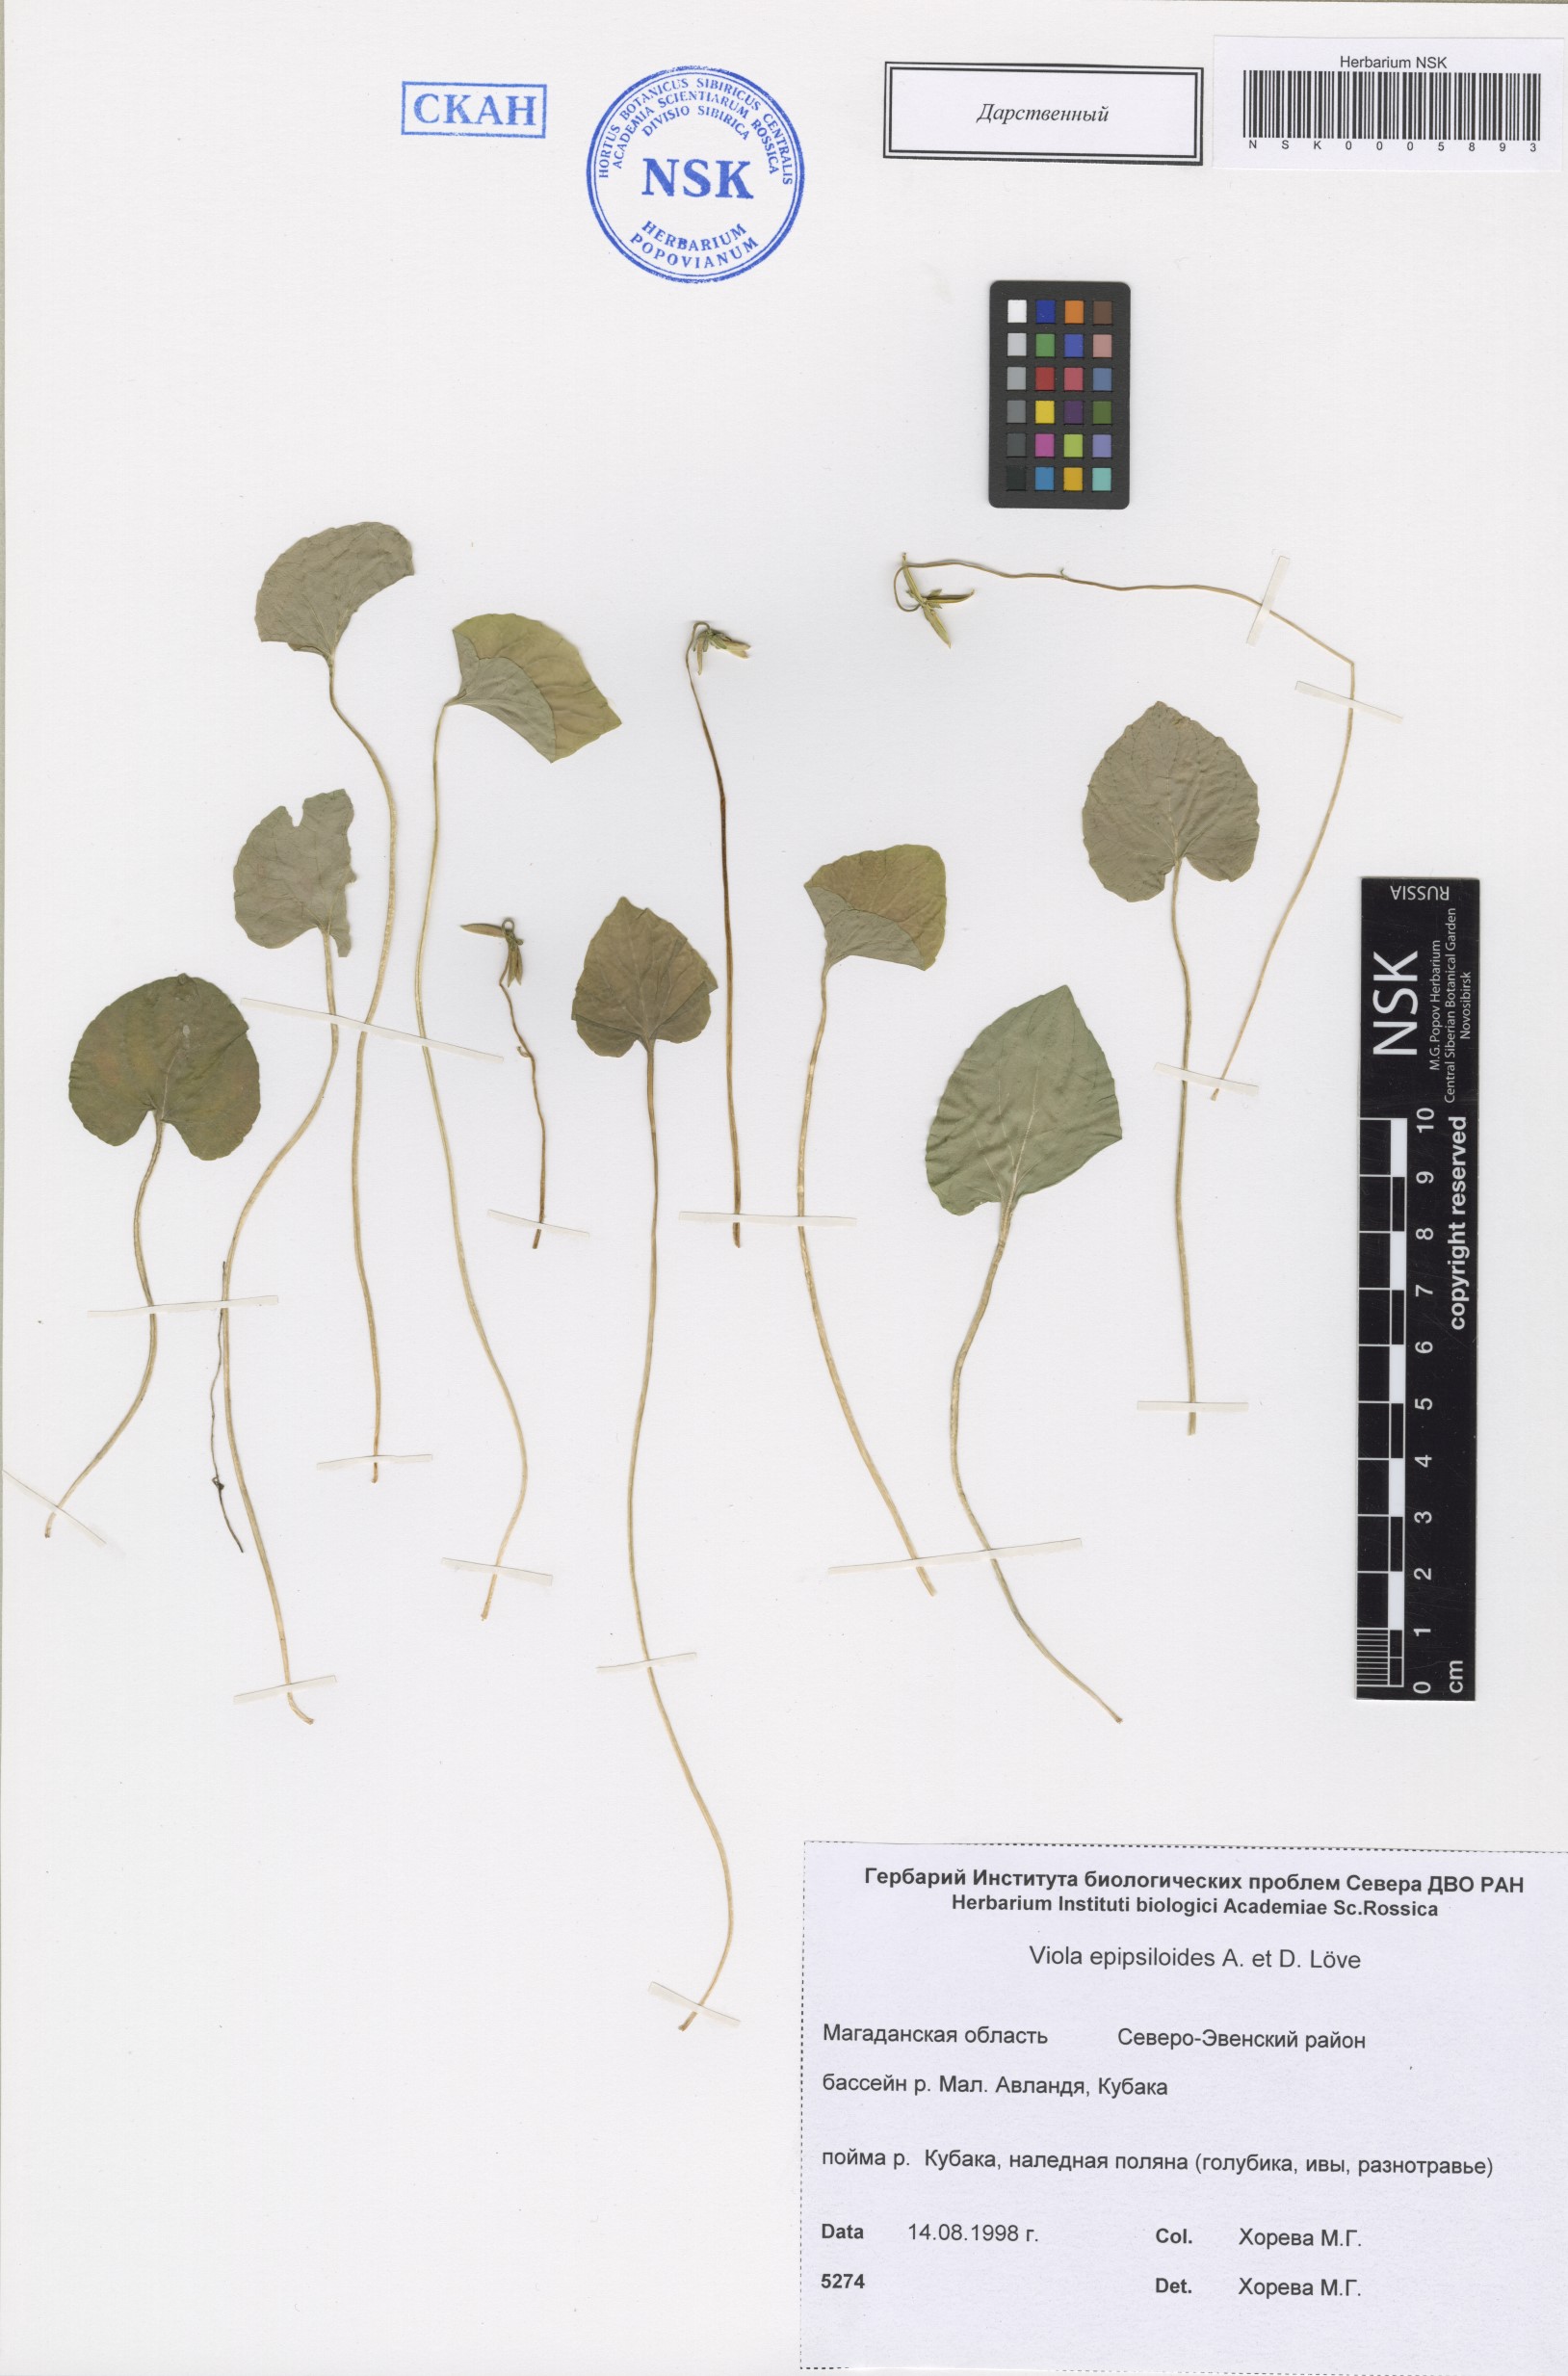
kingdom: Plantae
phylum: Tracheophyta
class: Magnoliopsida
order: Malpighiales
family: Violaceae
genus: Viola
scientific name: Viola epipsila
